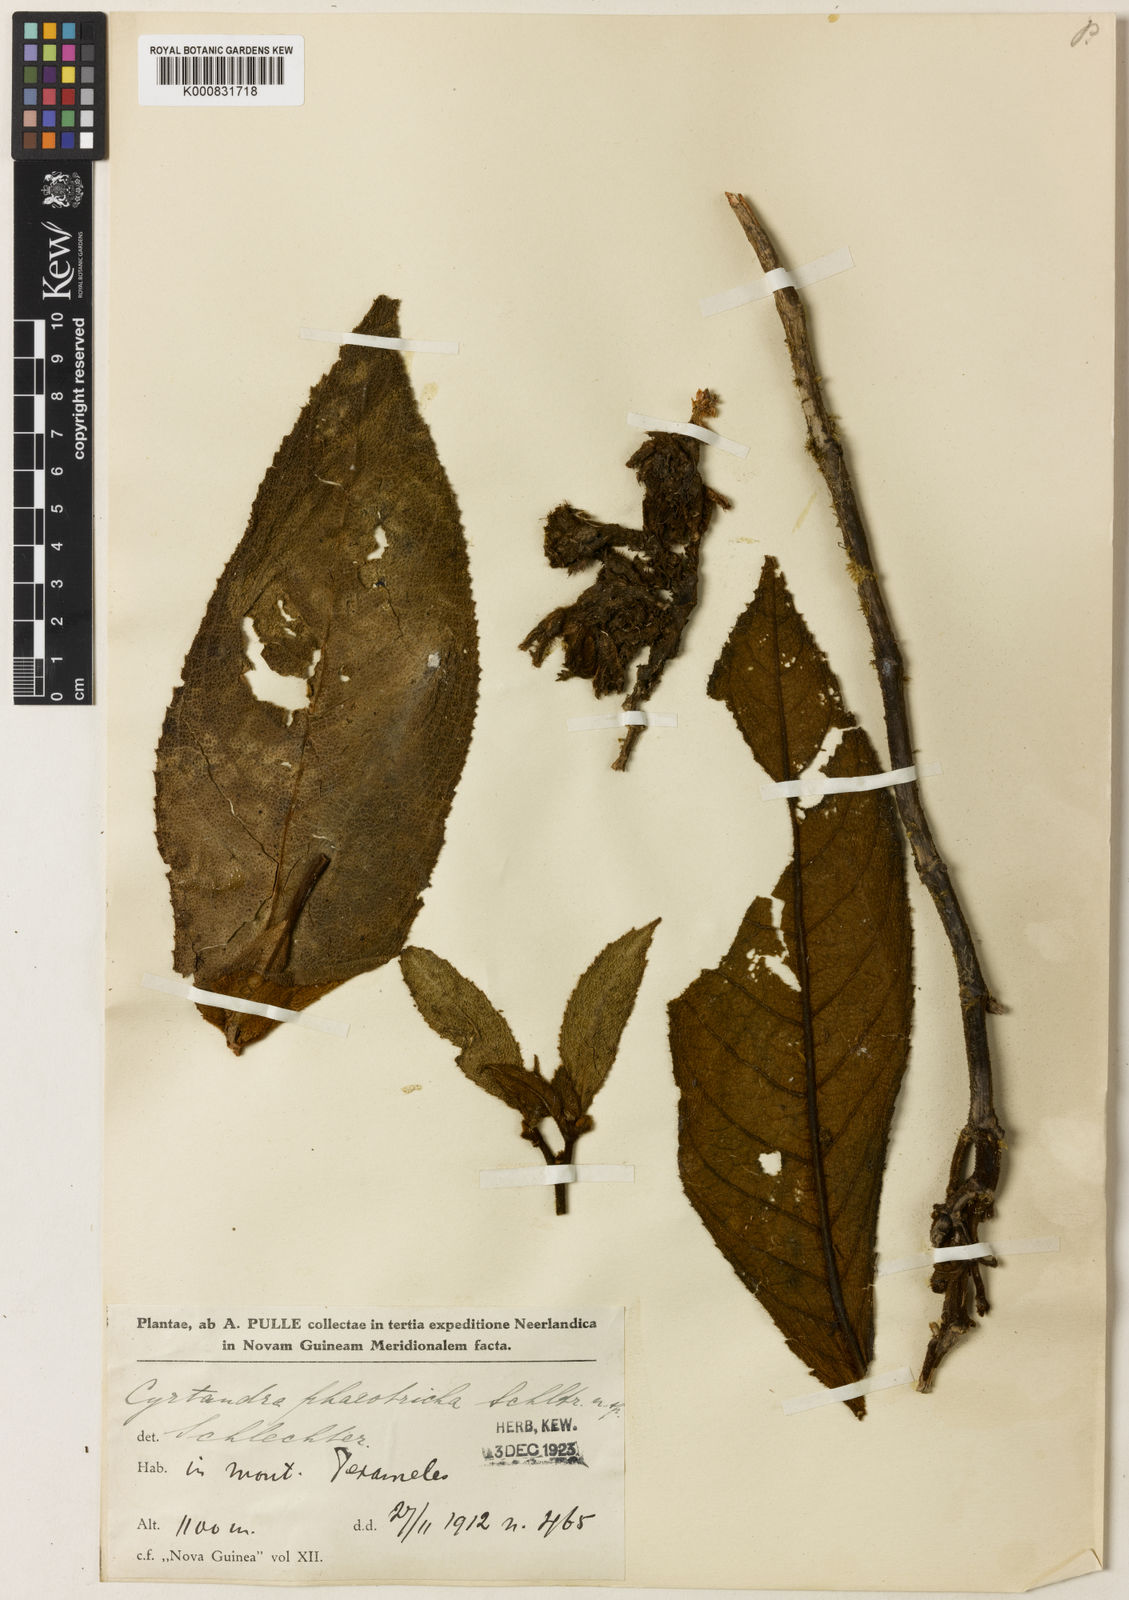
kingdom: Plantae
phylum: Tracheophyta
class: Magnoliopsida
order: Lamiales
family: Gesneriaceae
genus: Cyrtandra
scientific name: Cyrtandra
